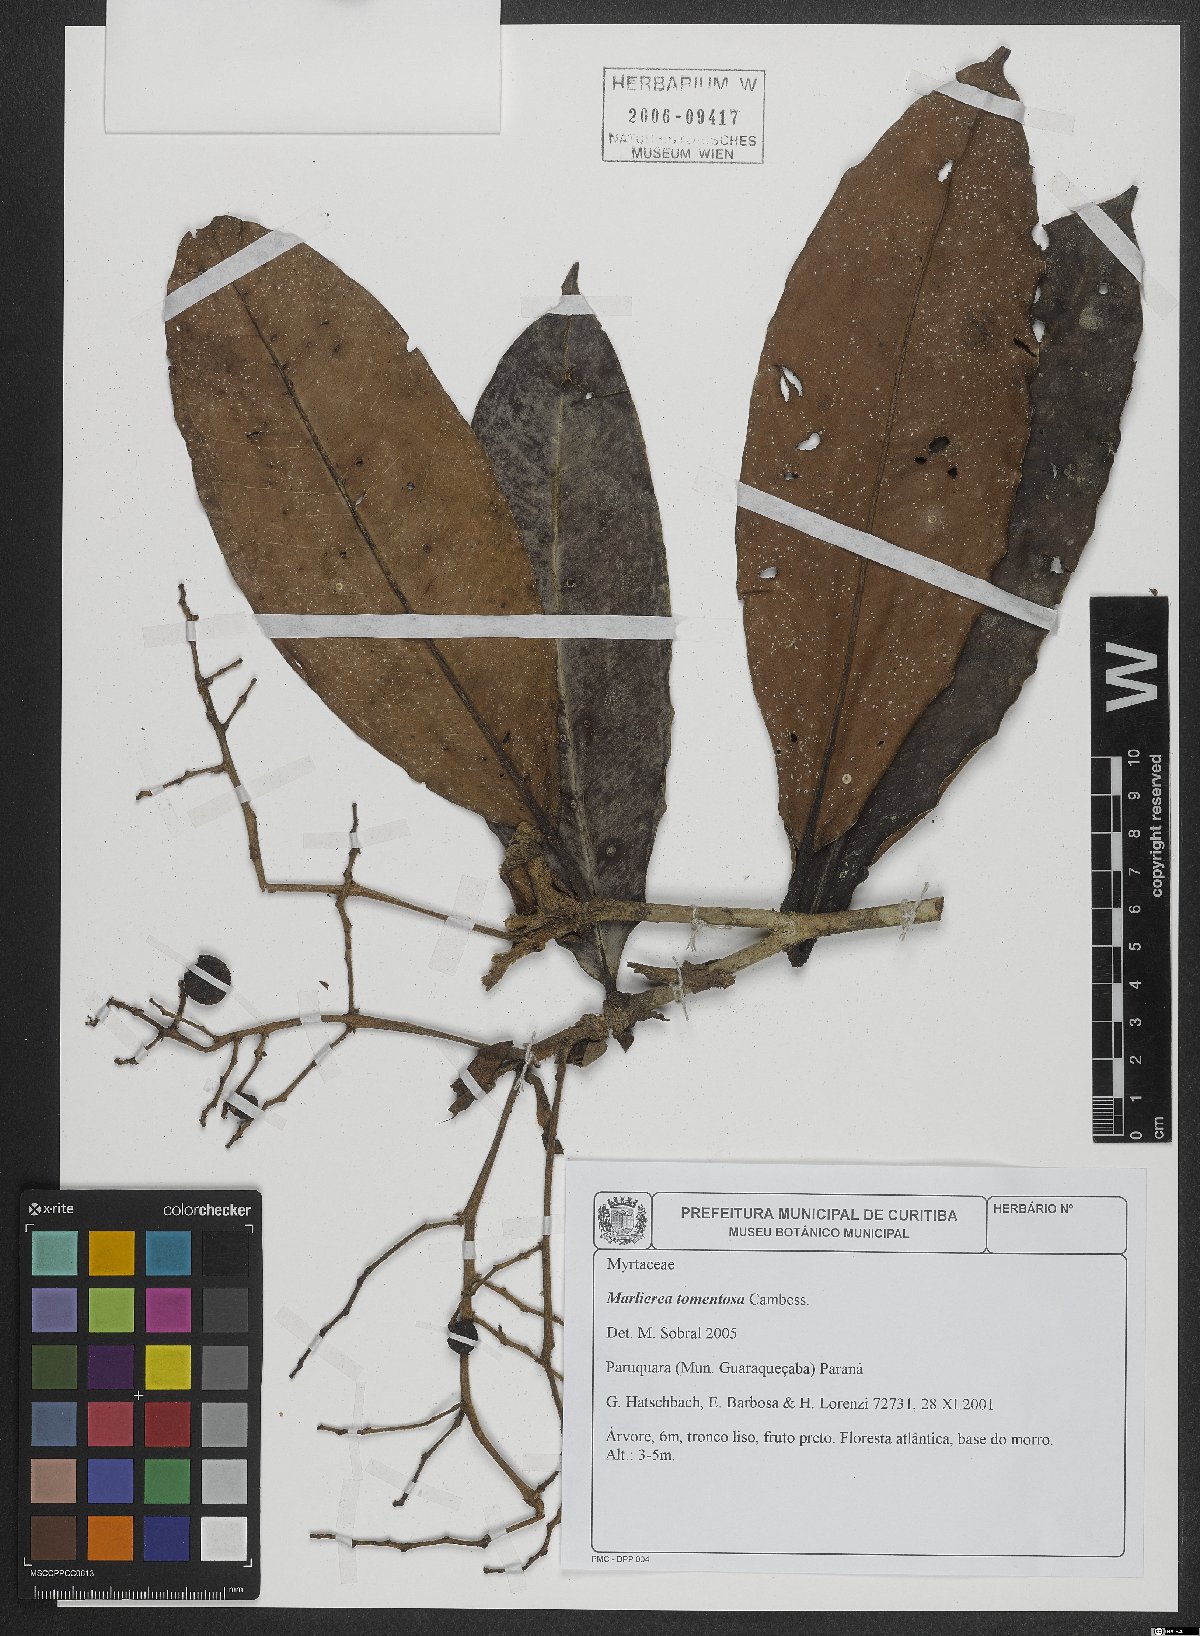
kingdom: Plantae
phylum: Tracheophyta
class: Magnoliopsida
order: Myrtales
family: Myrtaceae
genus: Myrcia
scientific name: Myrcia neotomentosa
